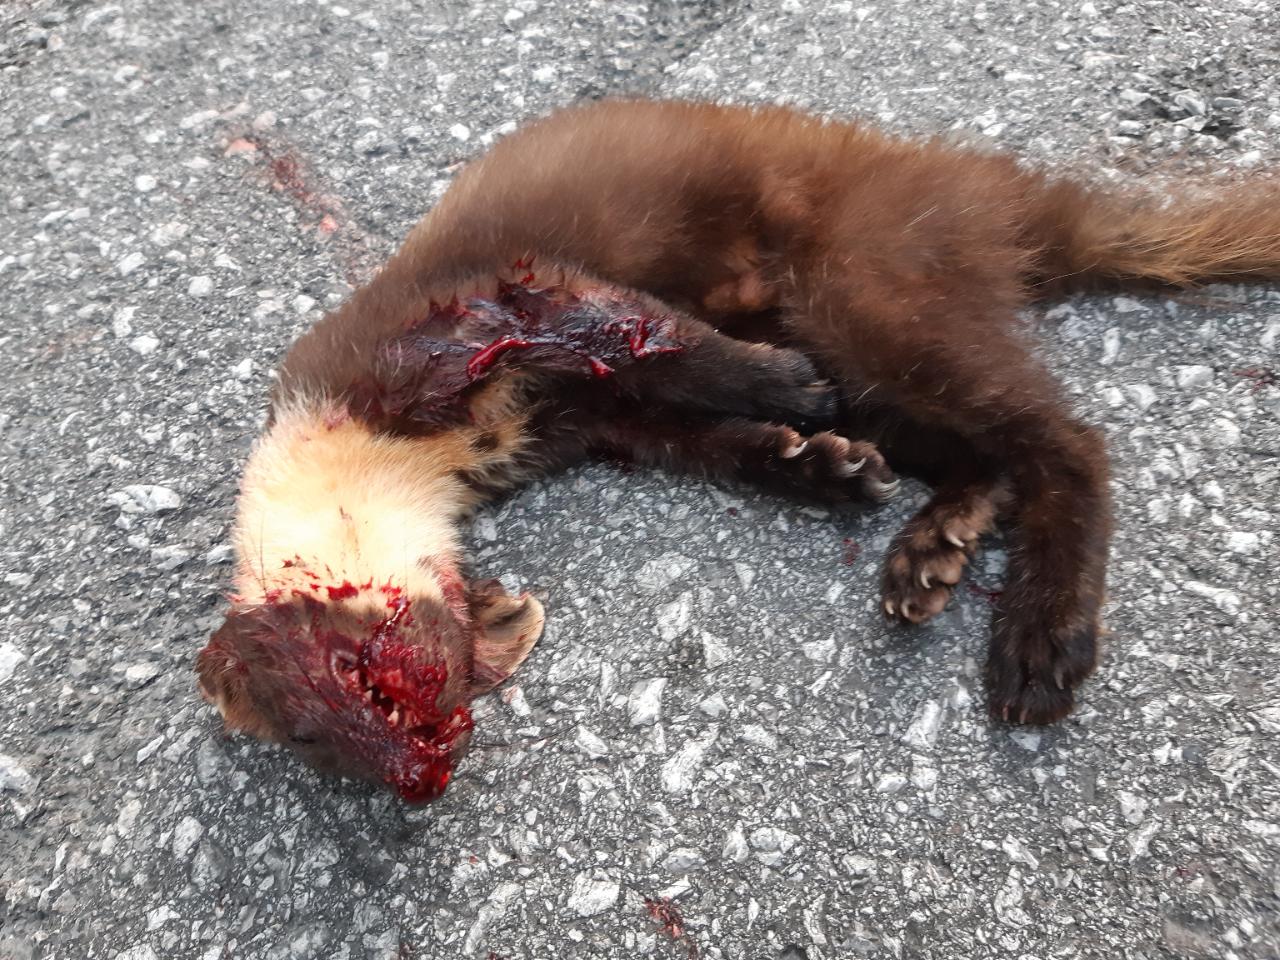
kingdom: Animalia
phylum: Chordata
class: Mammalia
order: Carnivora
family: Mustelidae
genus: Martes
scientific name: Martes martes
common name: European pine marten
